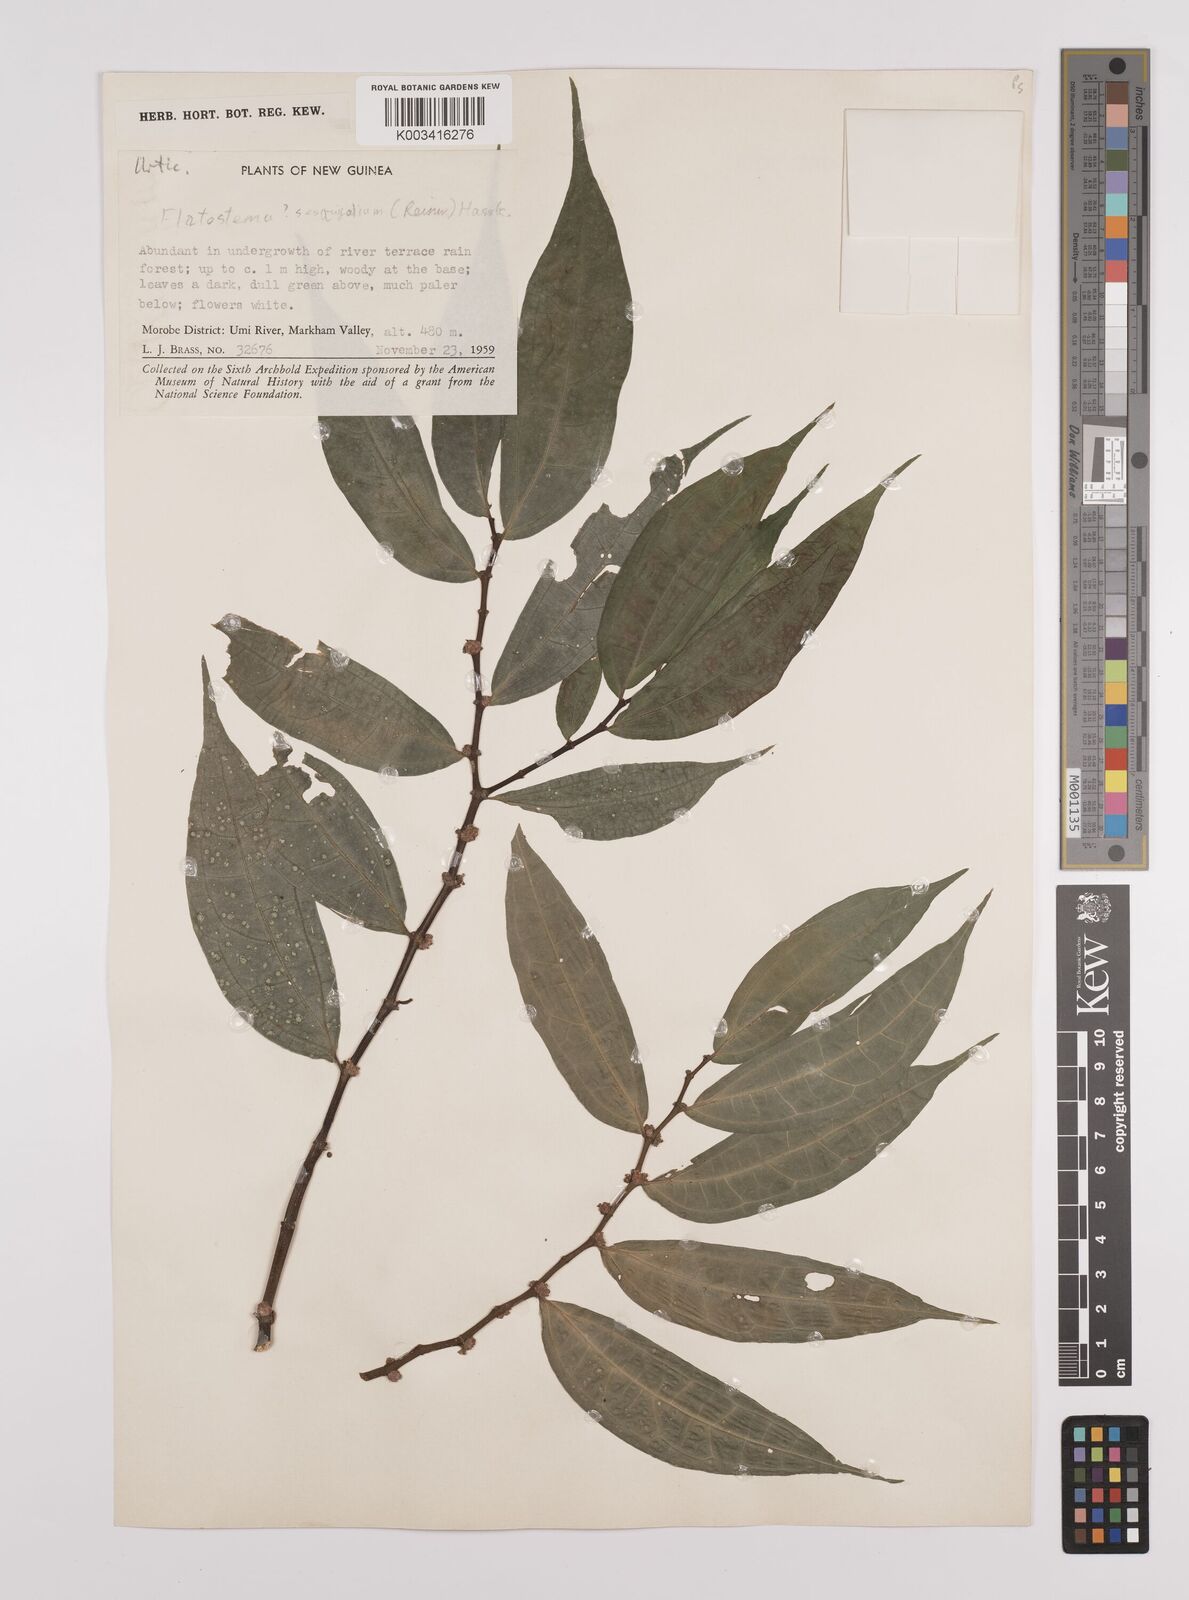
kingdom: Plantae
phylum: Tracheophyta
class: Magnoliopsida
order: Rosales
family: Urticaceae
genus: Elatostema
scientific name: Elatostema integrifolium
